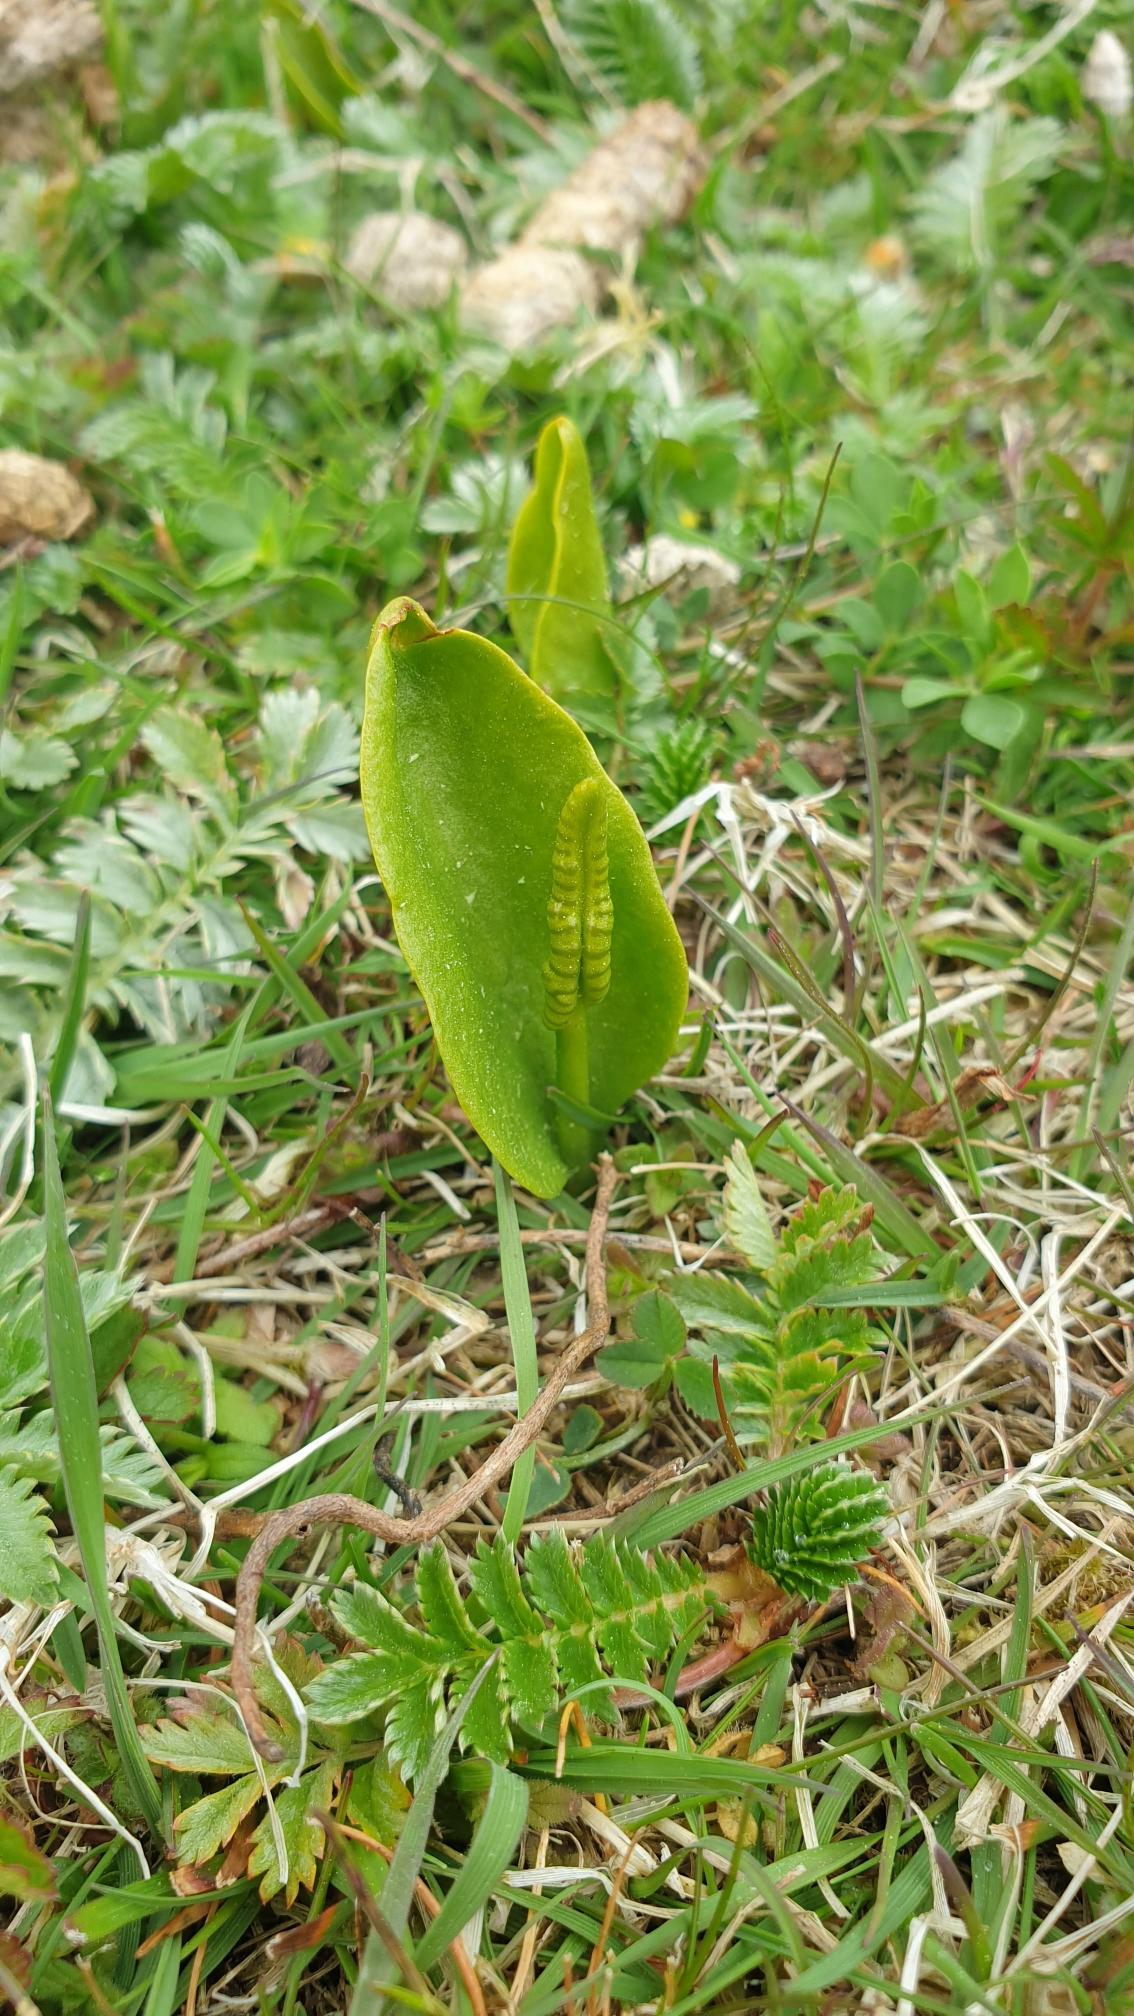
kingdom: Plantae
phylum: Tracheophyta
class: Polypodiopsida
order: Ophioglossales
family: Ophioglossaceae
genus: Ophioglossum
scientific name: Ophioglossum vulgatum
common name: Slangetunge
